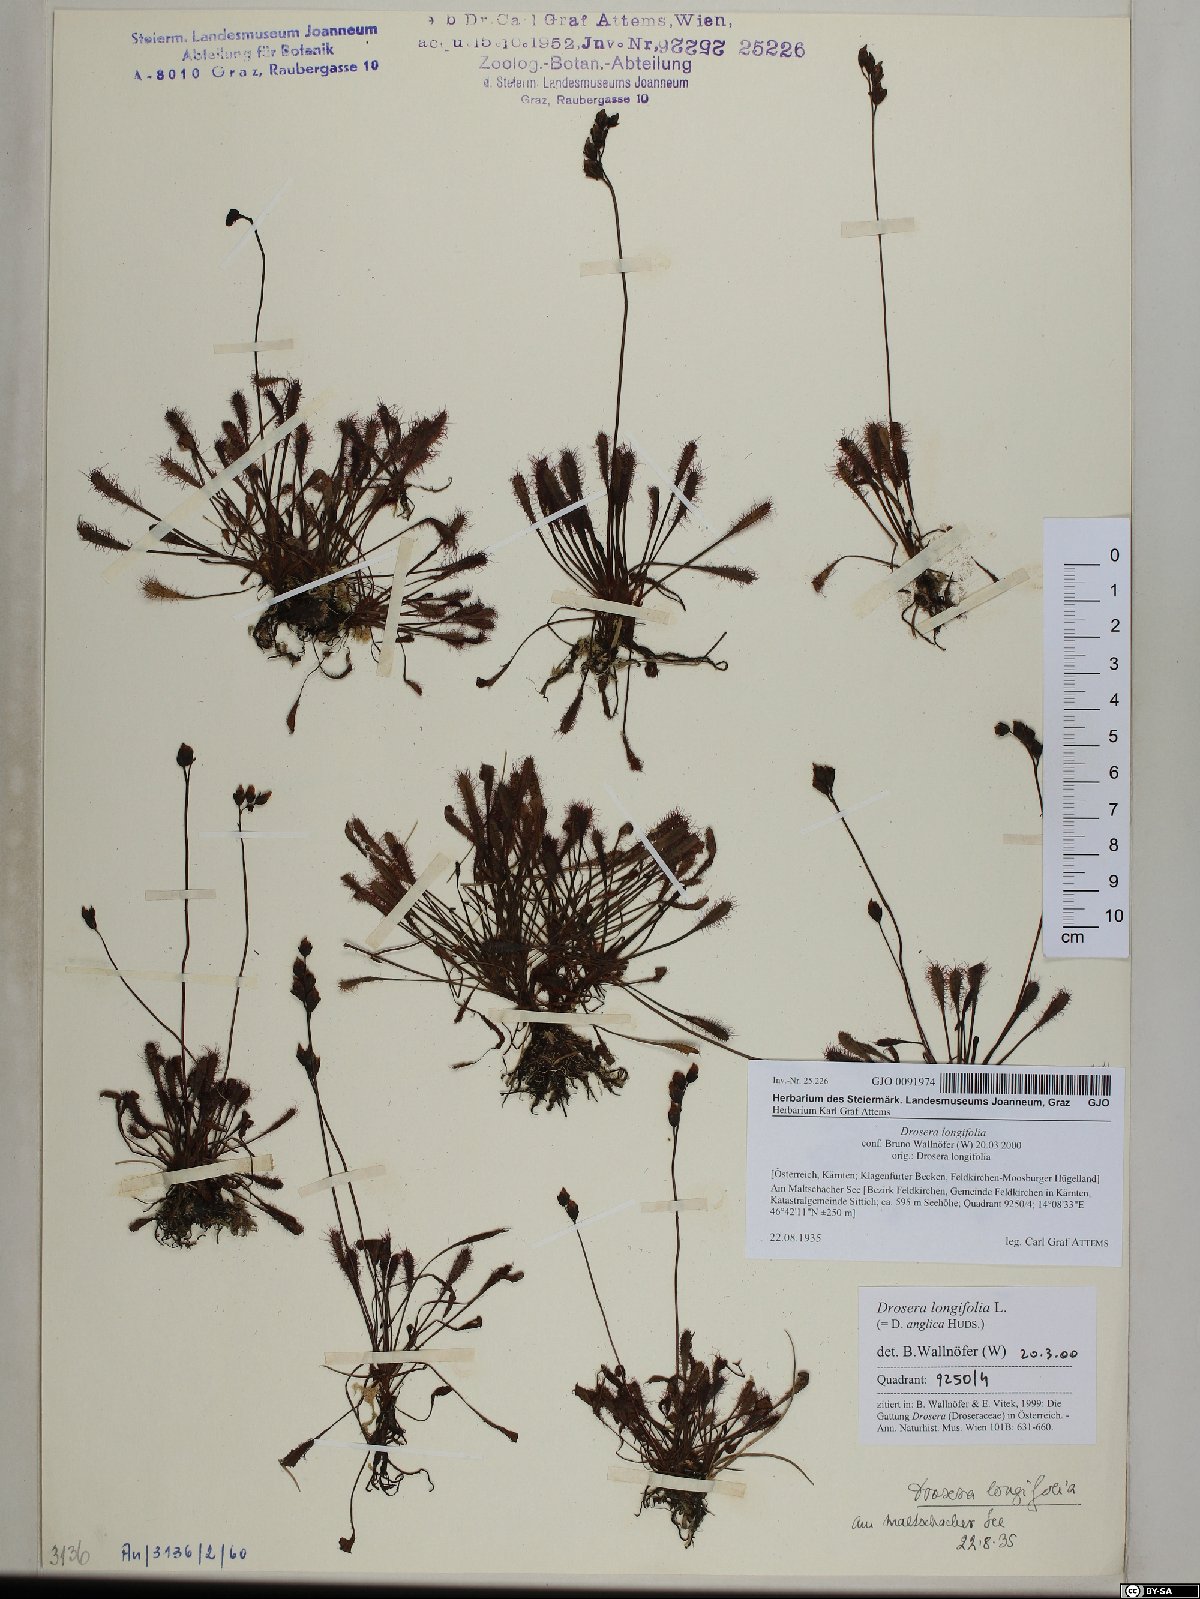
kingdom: Plantae
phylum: Tracheophyta
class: Magnoliopsida
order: Caryophyllales
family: Droseraceae
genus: Drosera
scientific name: Drosera anglica
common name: Great sundew
